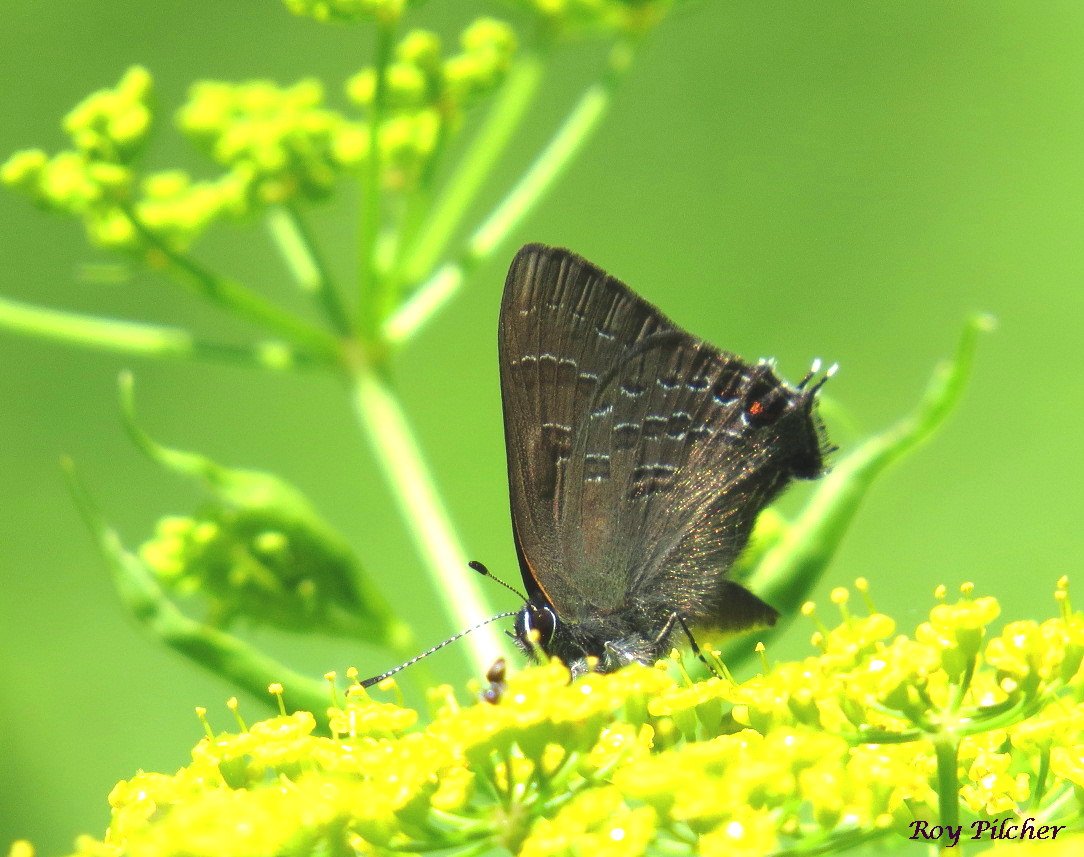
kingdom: Animalia
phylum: Arthropoda
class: Insecta
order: Lepidoptera
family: Lycaenidae
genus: Satyrium
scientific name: Satyrium calanus
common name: Banded Hairstreak
